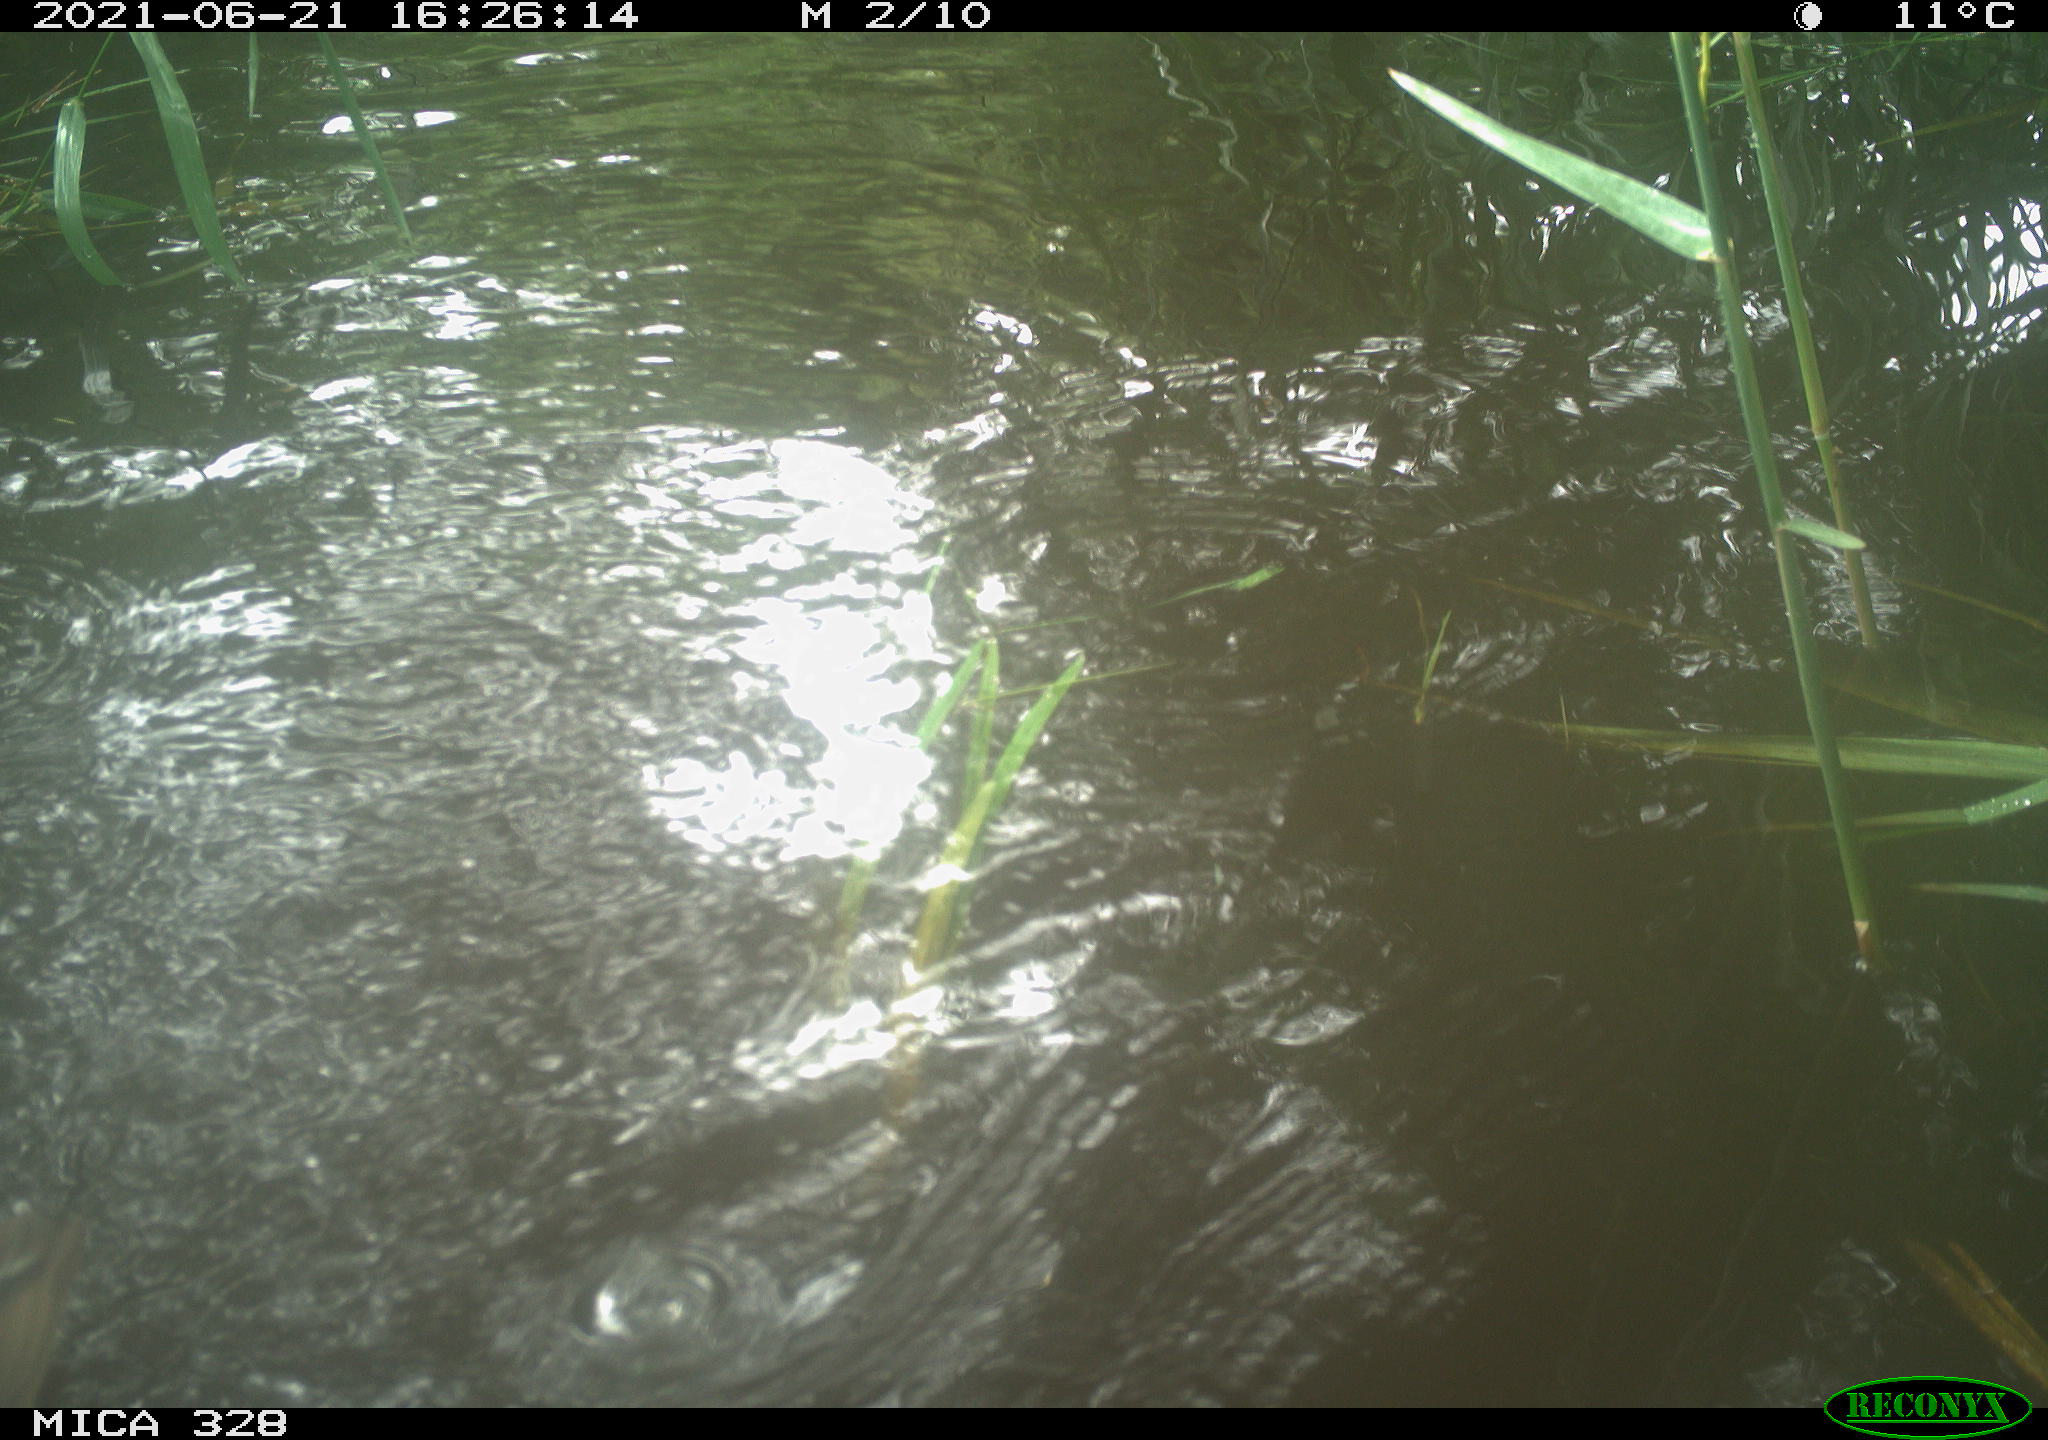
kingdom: Animalia
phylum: Chordata
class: Aves
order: Anseriformes
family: Anatidae
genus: Aix
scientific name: Aix galericulata
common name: Mandarin duck
